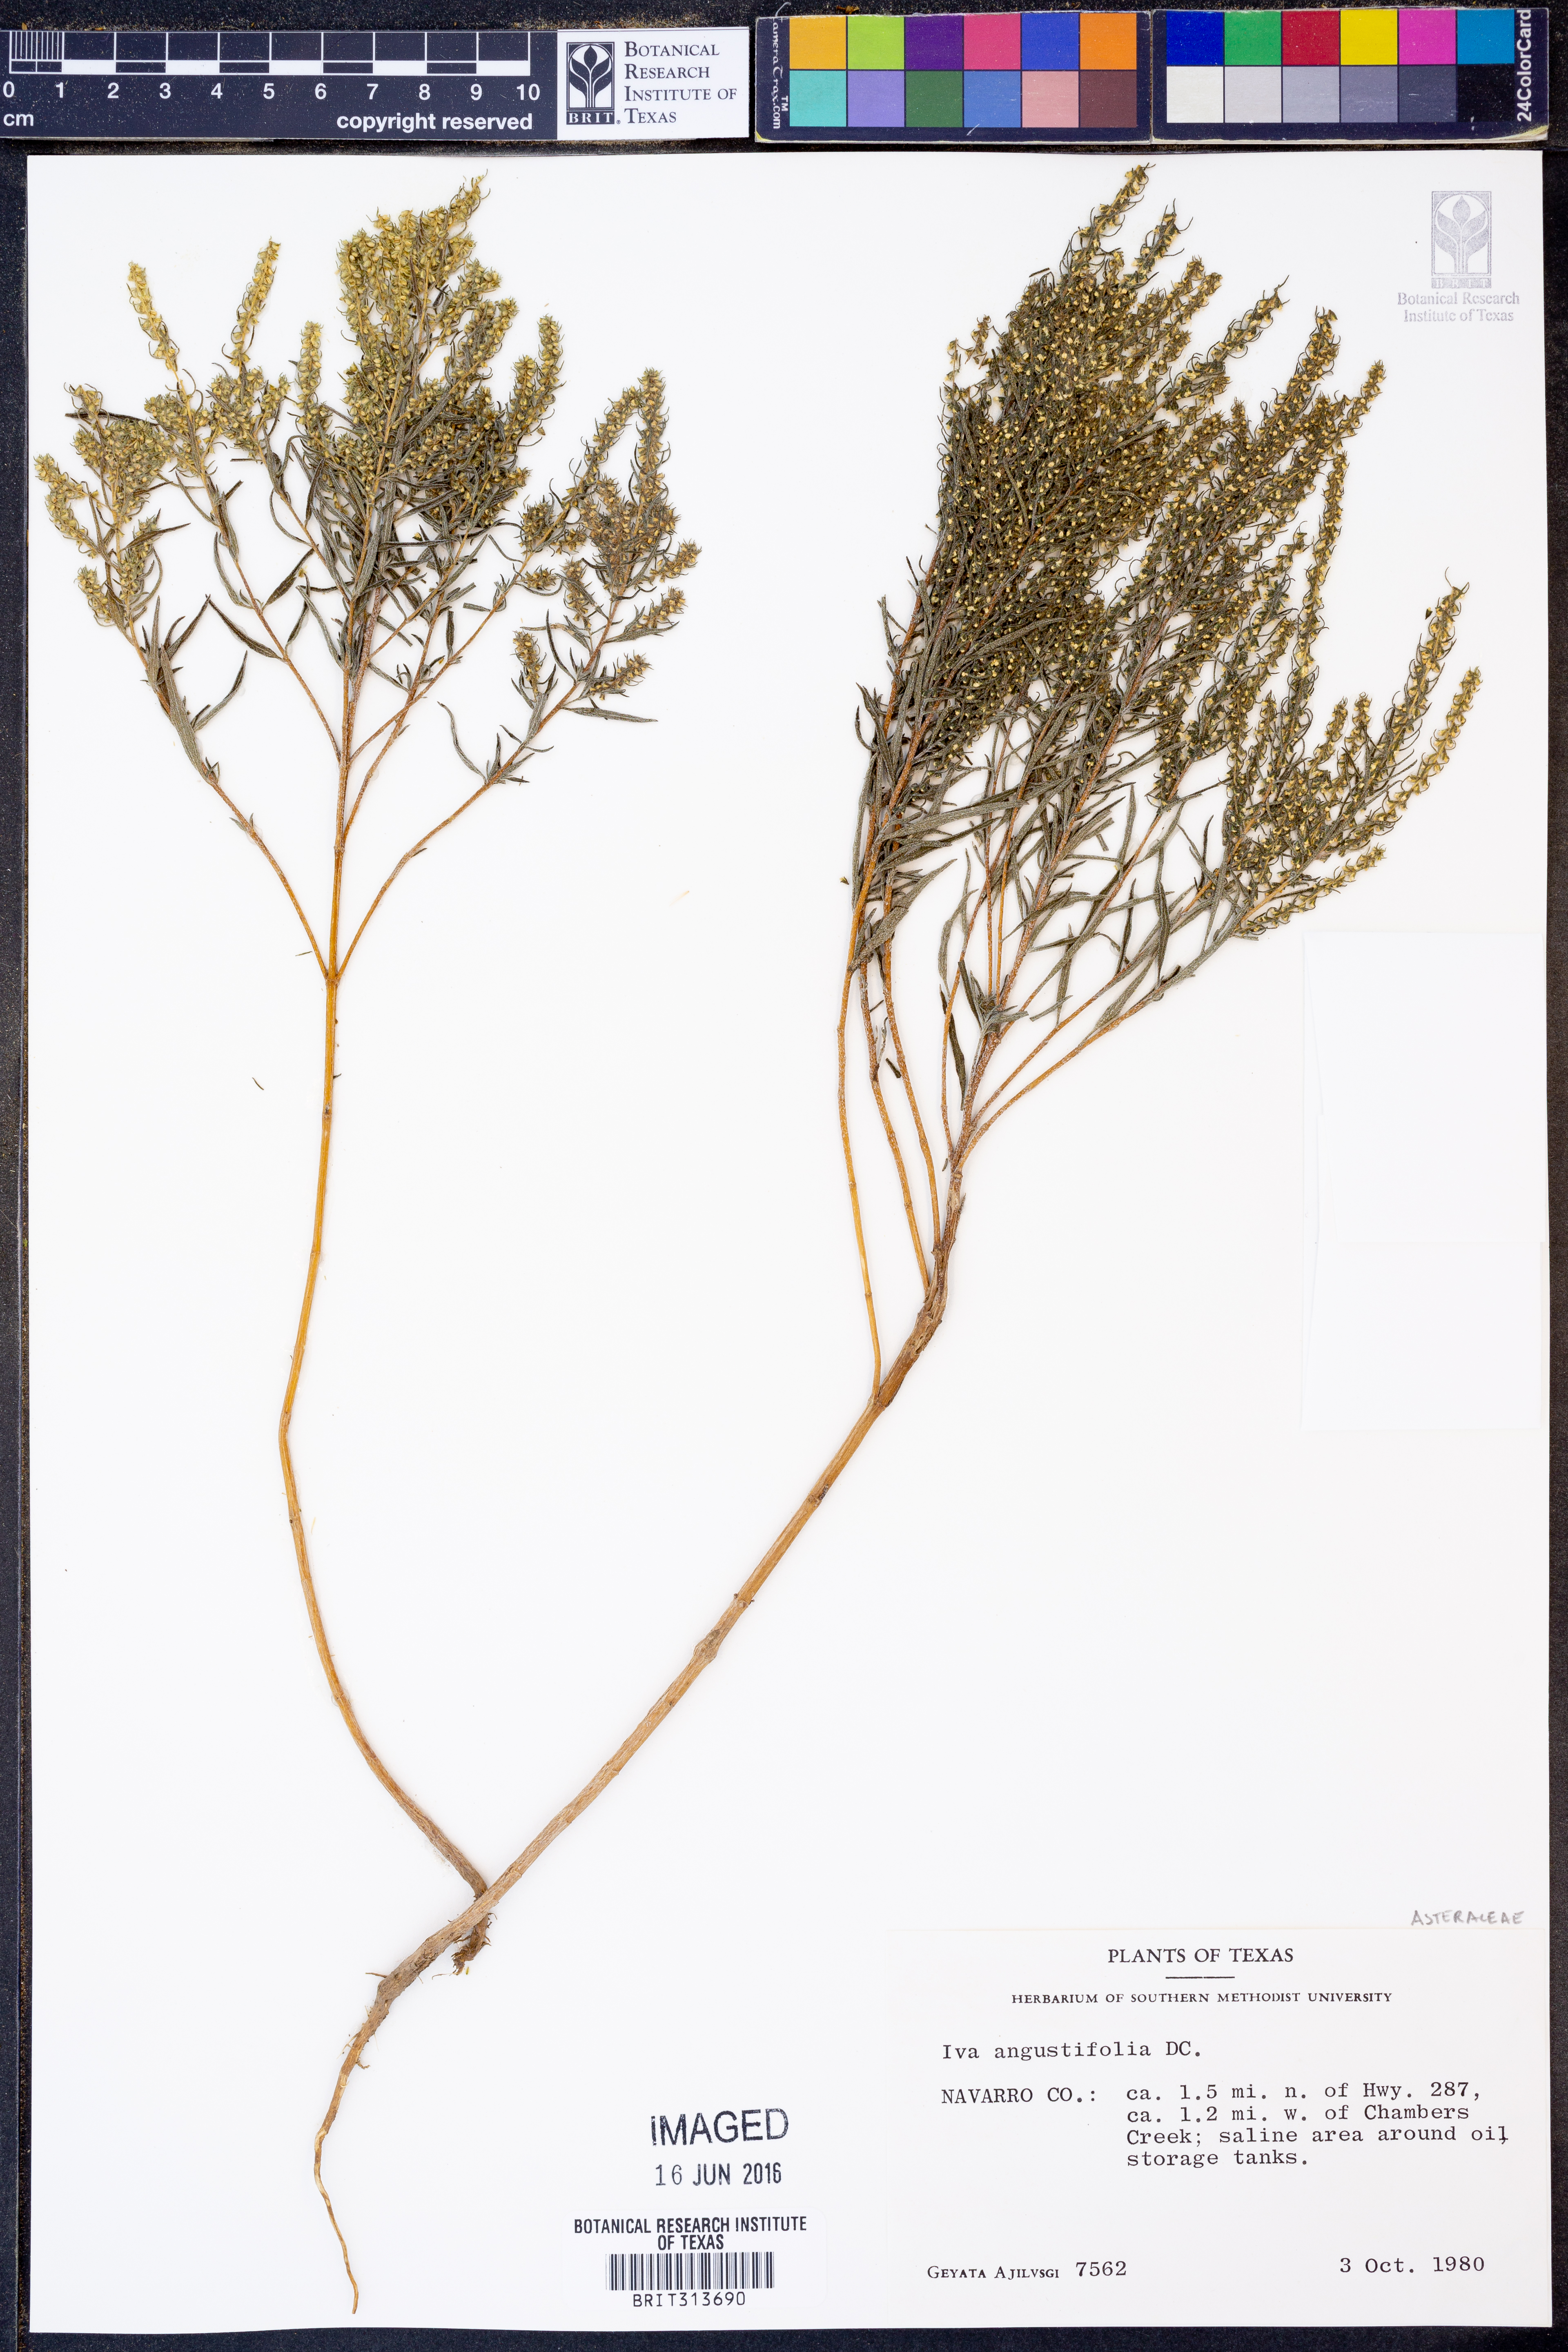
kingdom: Plantae
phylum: Tracheophyta
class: Magnoliopsida
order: Asterales
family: Asteraceae
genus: Iva
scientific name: Iva asperifolia
